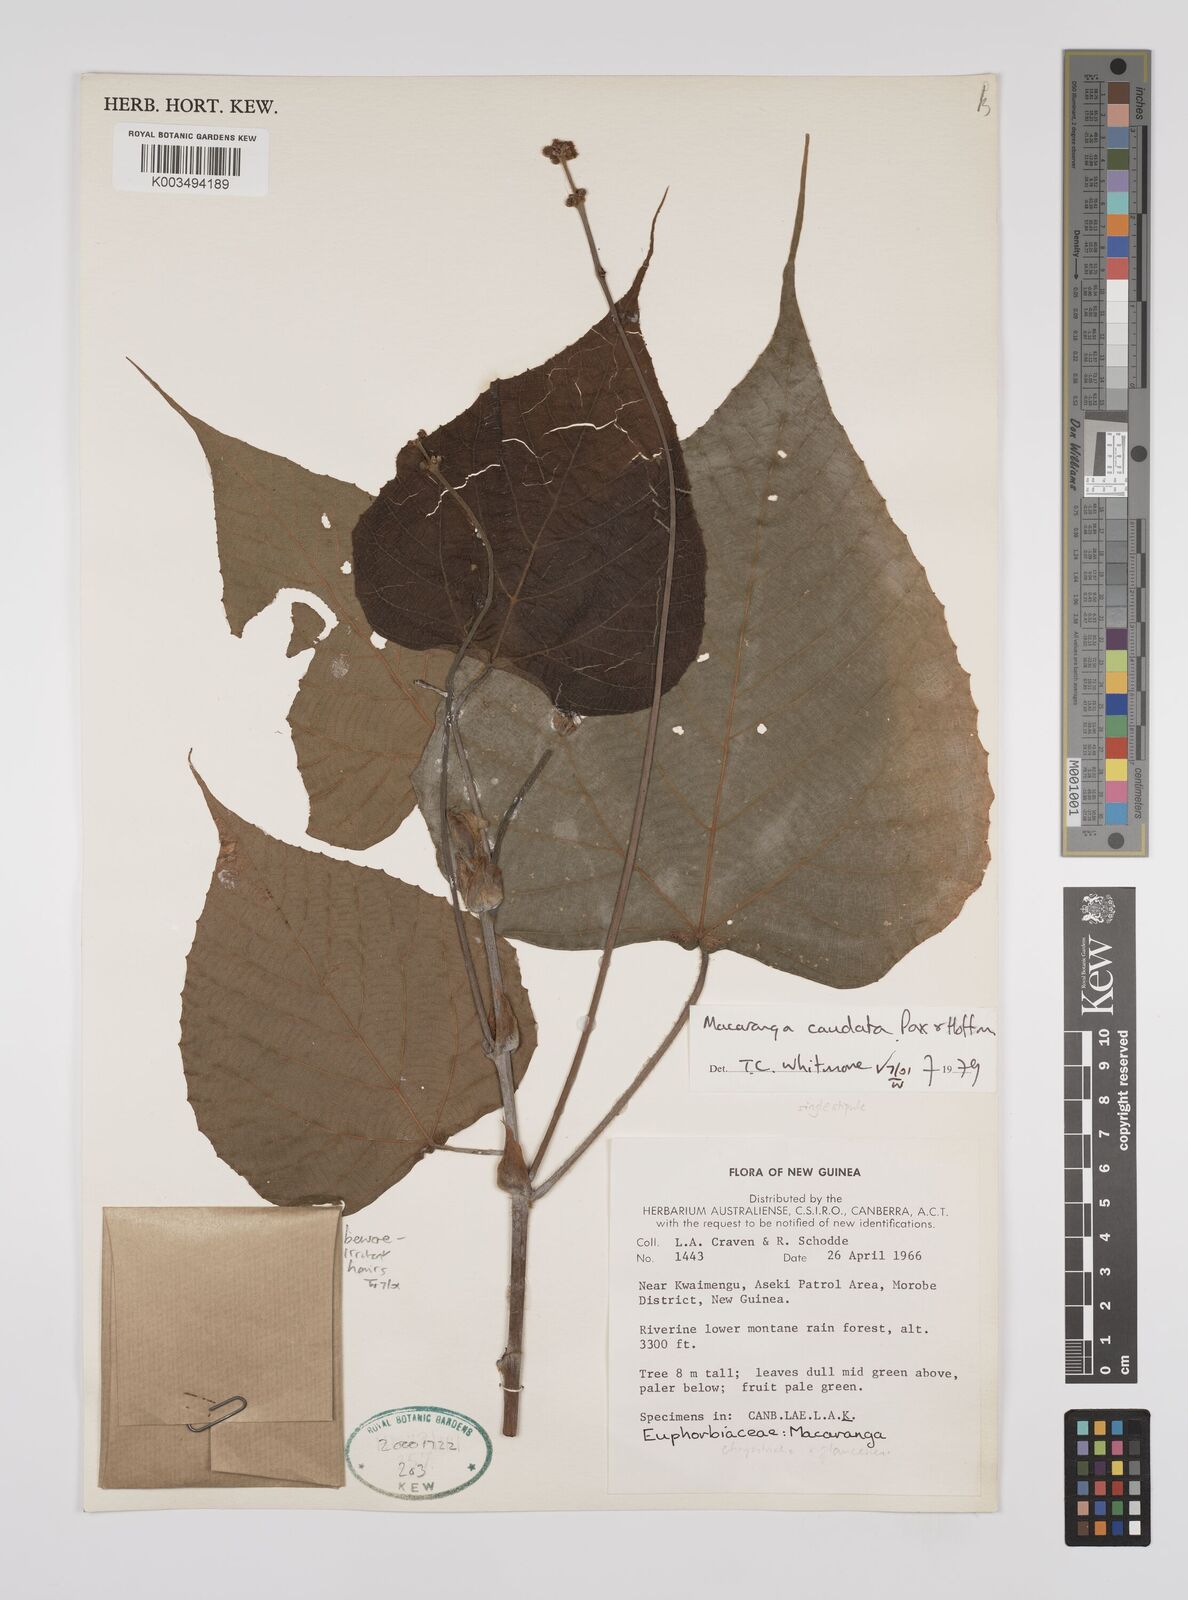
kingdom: Plantae
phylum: Tracheophyta
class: Magnoliopsida
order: Malpighiales
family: Euphorbiaceae
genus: Macaranga
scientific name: Macaranga caudata
